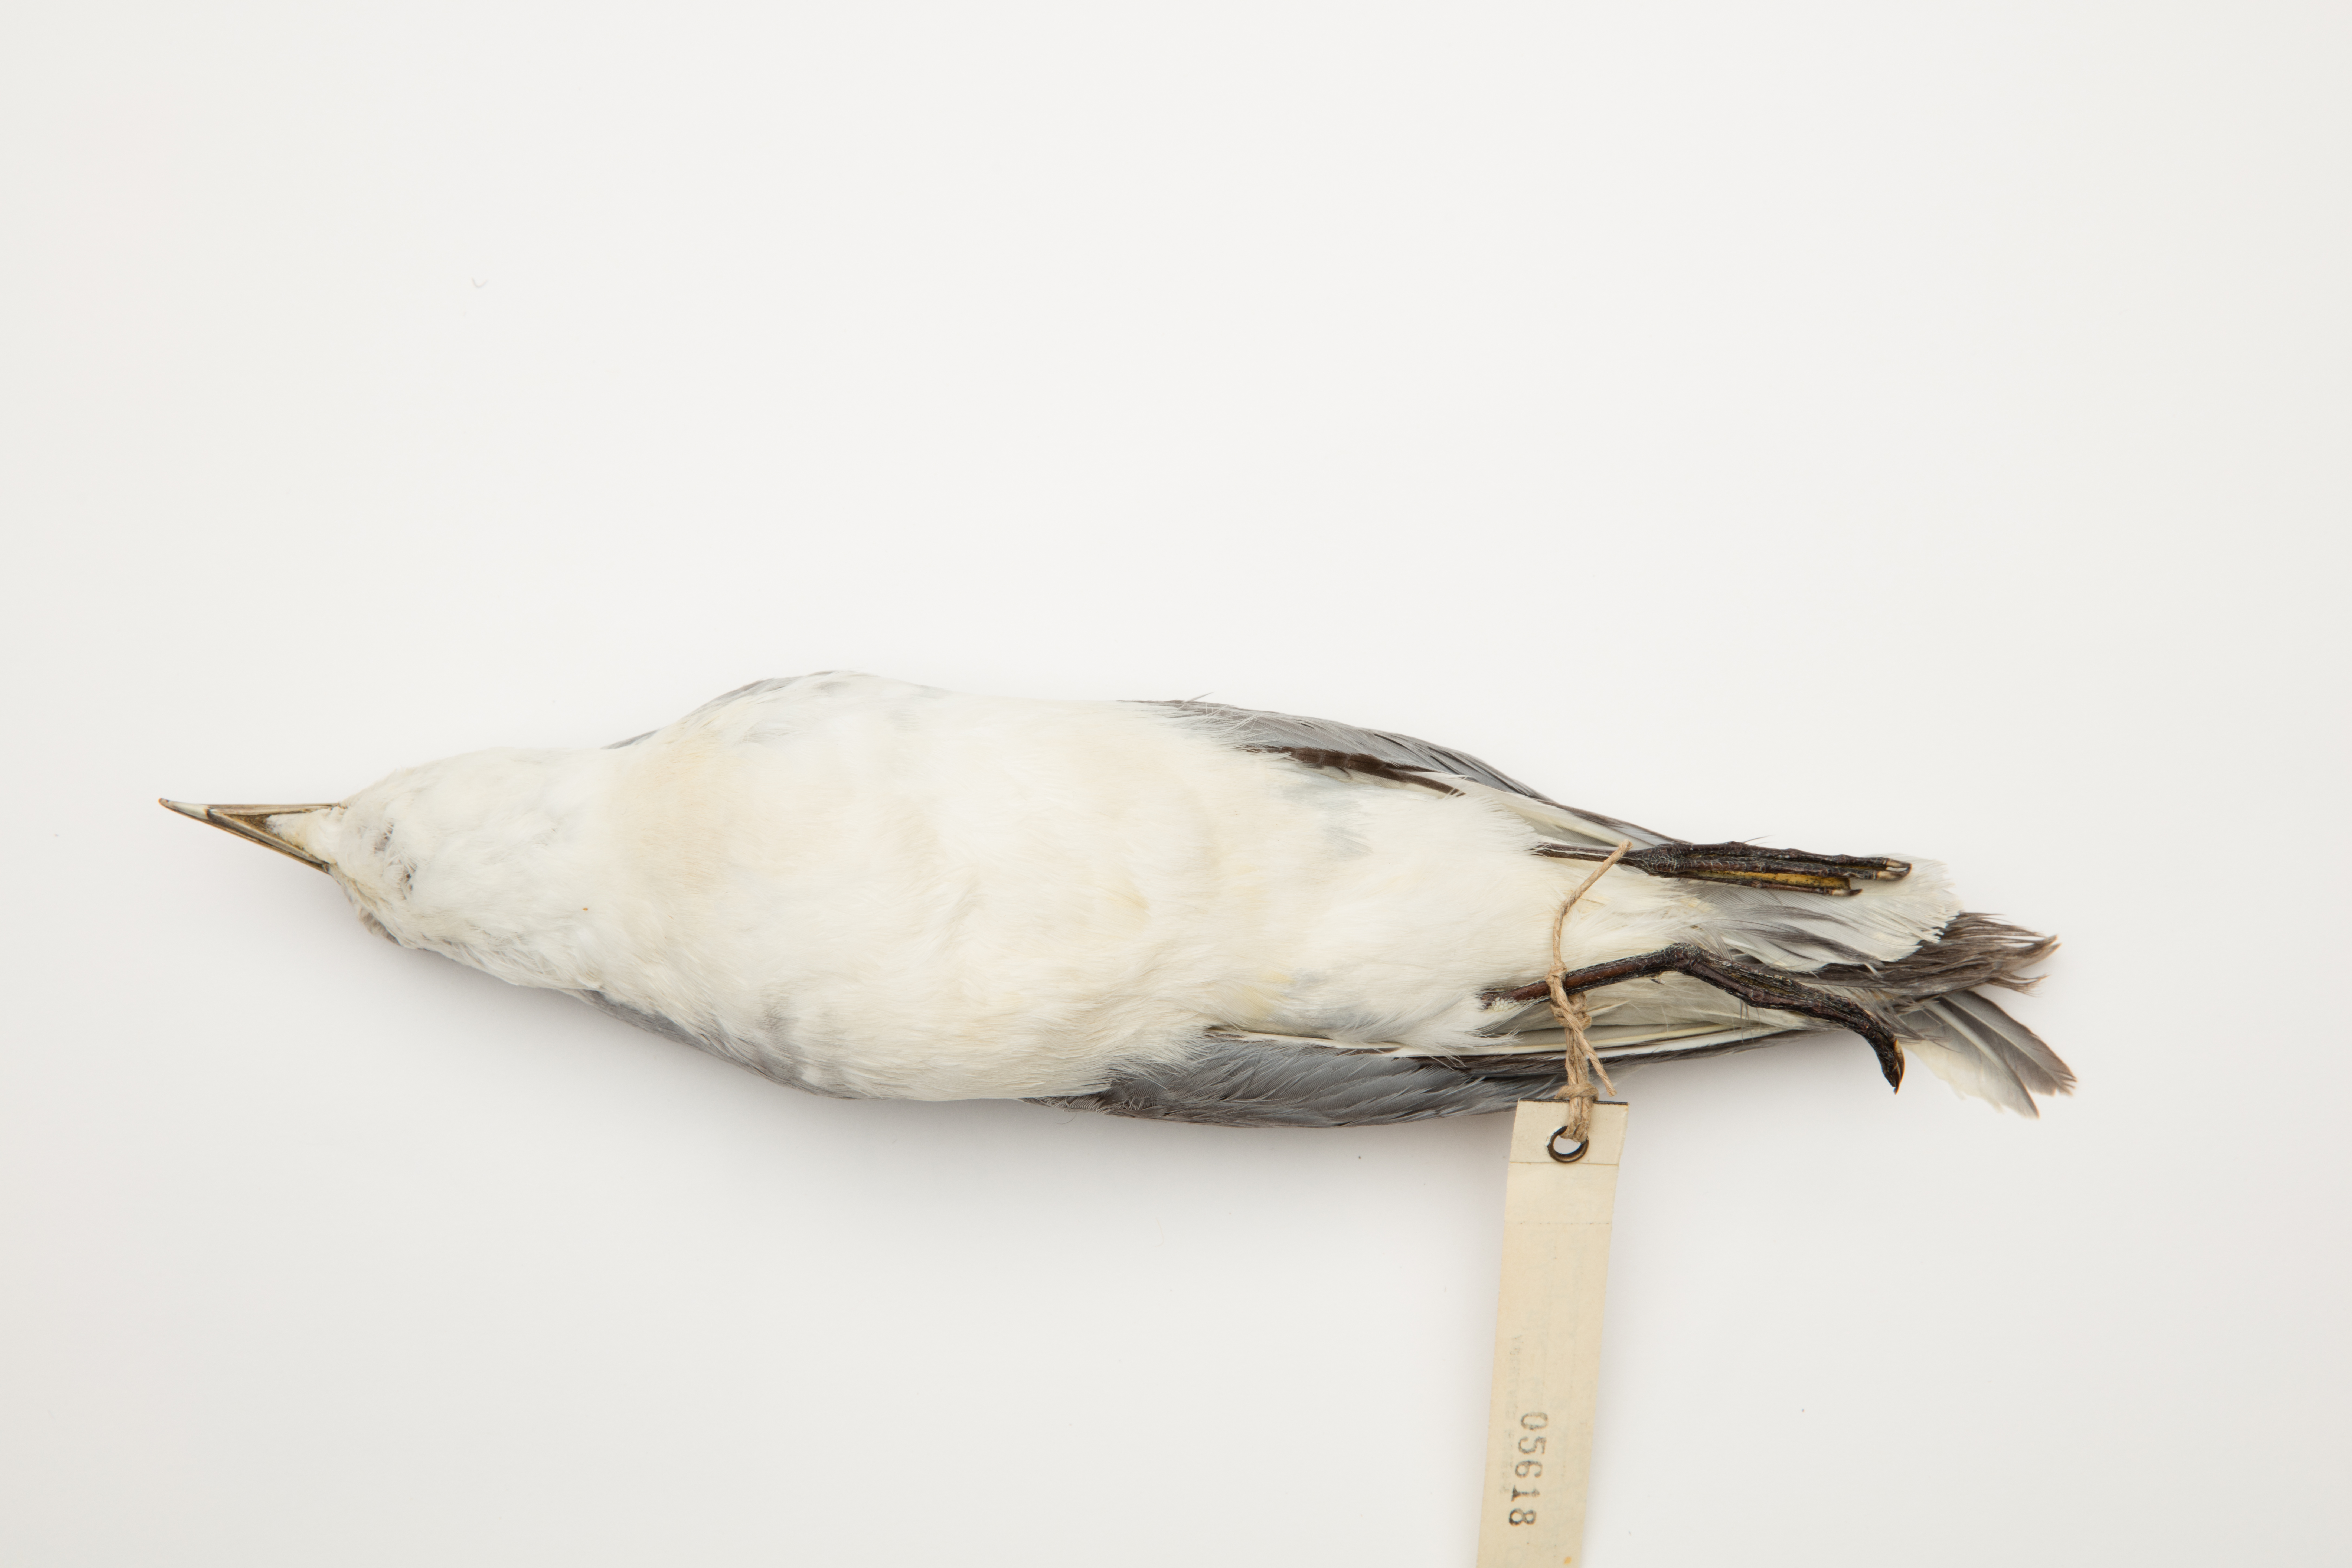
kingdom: Animalia
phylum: Chordata
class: Aves
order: Procellariiformes
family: Procellariidae
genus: Pachyptila
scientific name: Pachyptila belcheri
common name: Slender-billed prion
